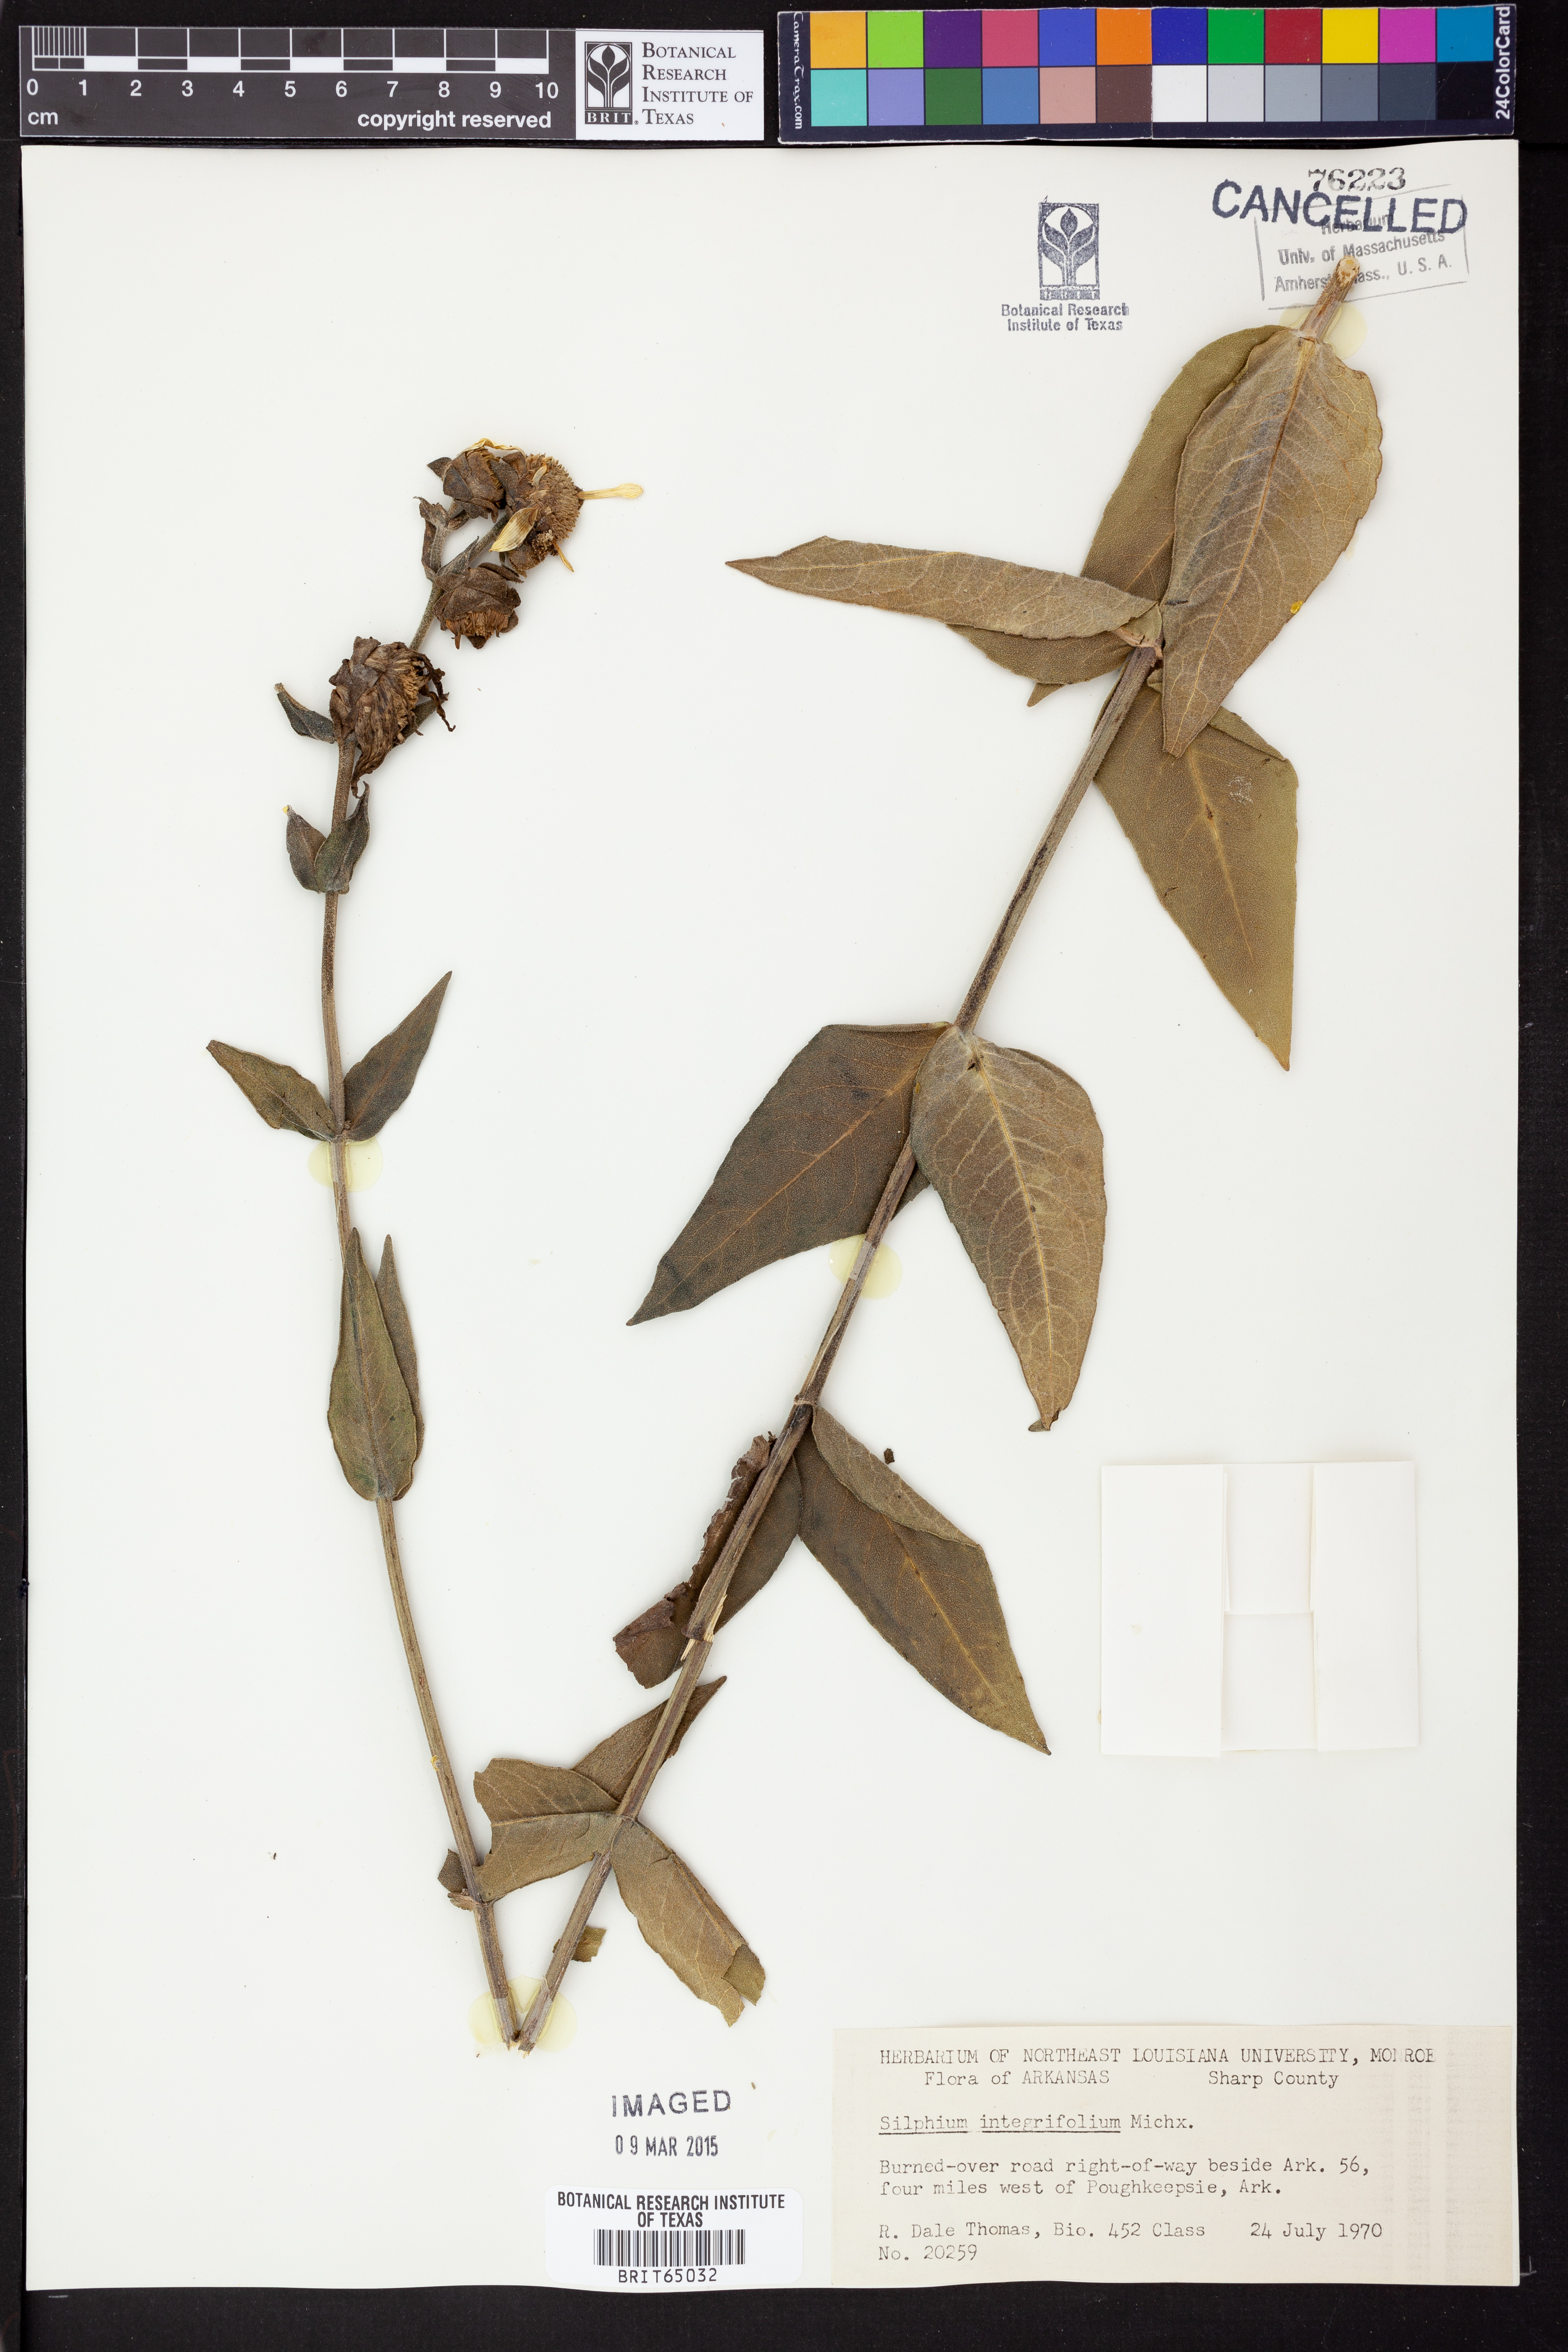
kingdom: Plantae
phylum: Tracheophyta
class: Magnoliopsida
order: Asterales
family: Asteraceae
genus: Silphium
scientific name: Silphium integrifolium
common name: Whole-leaf rosinweed
